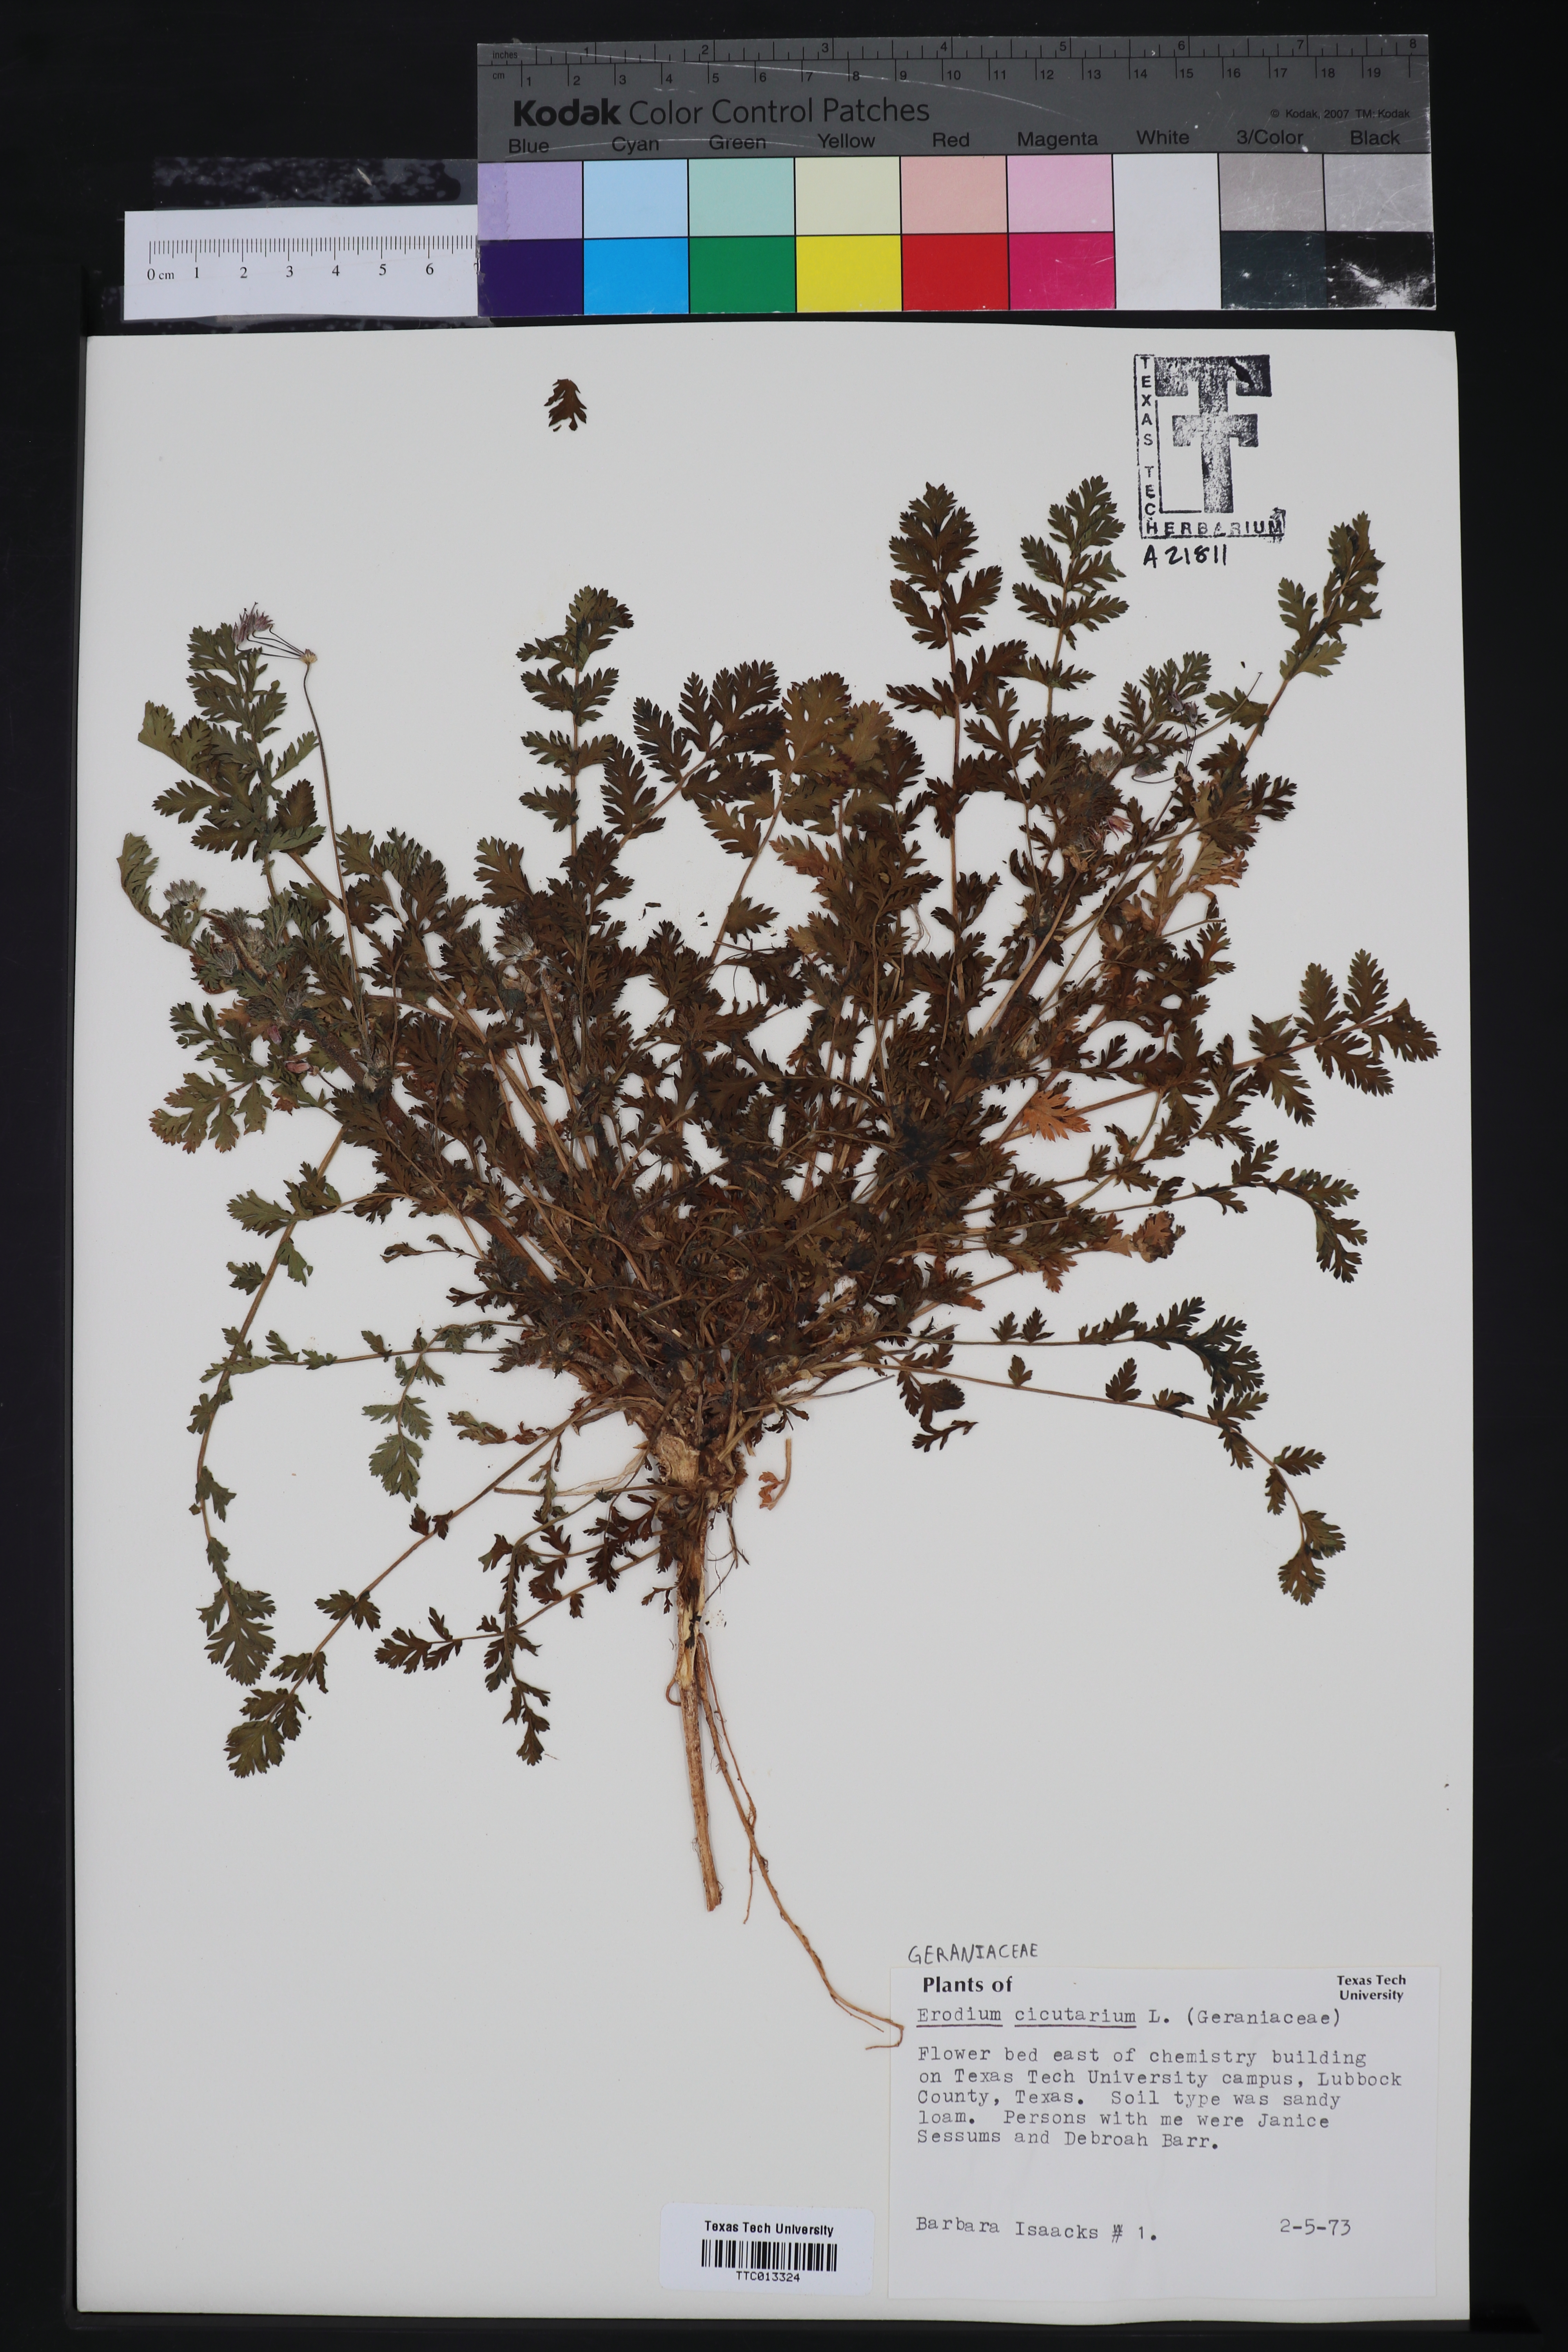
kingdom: Plantae
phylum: Tracheophyta
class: Magnoliopsida
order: Geraniales
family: Geraniaceae
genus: Erodium
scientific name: Erodium cicutarium
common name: Common stork's-bill
